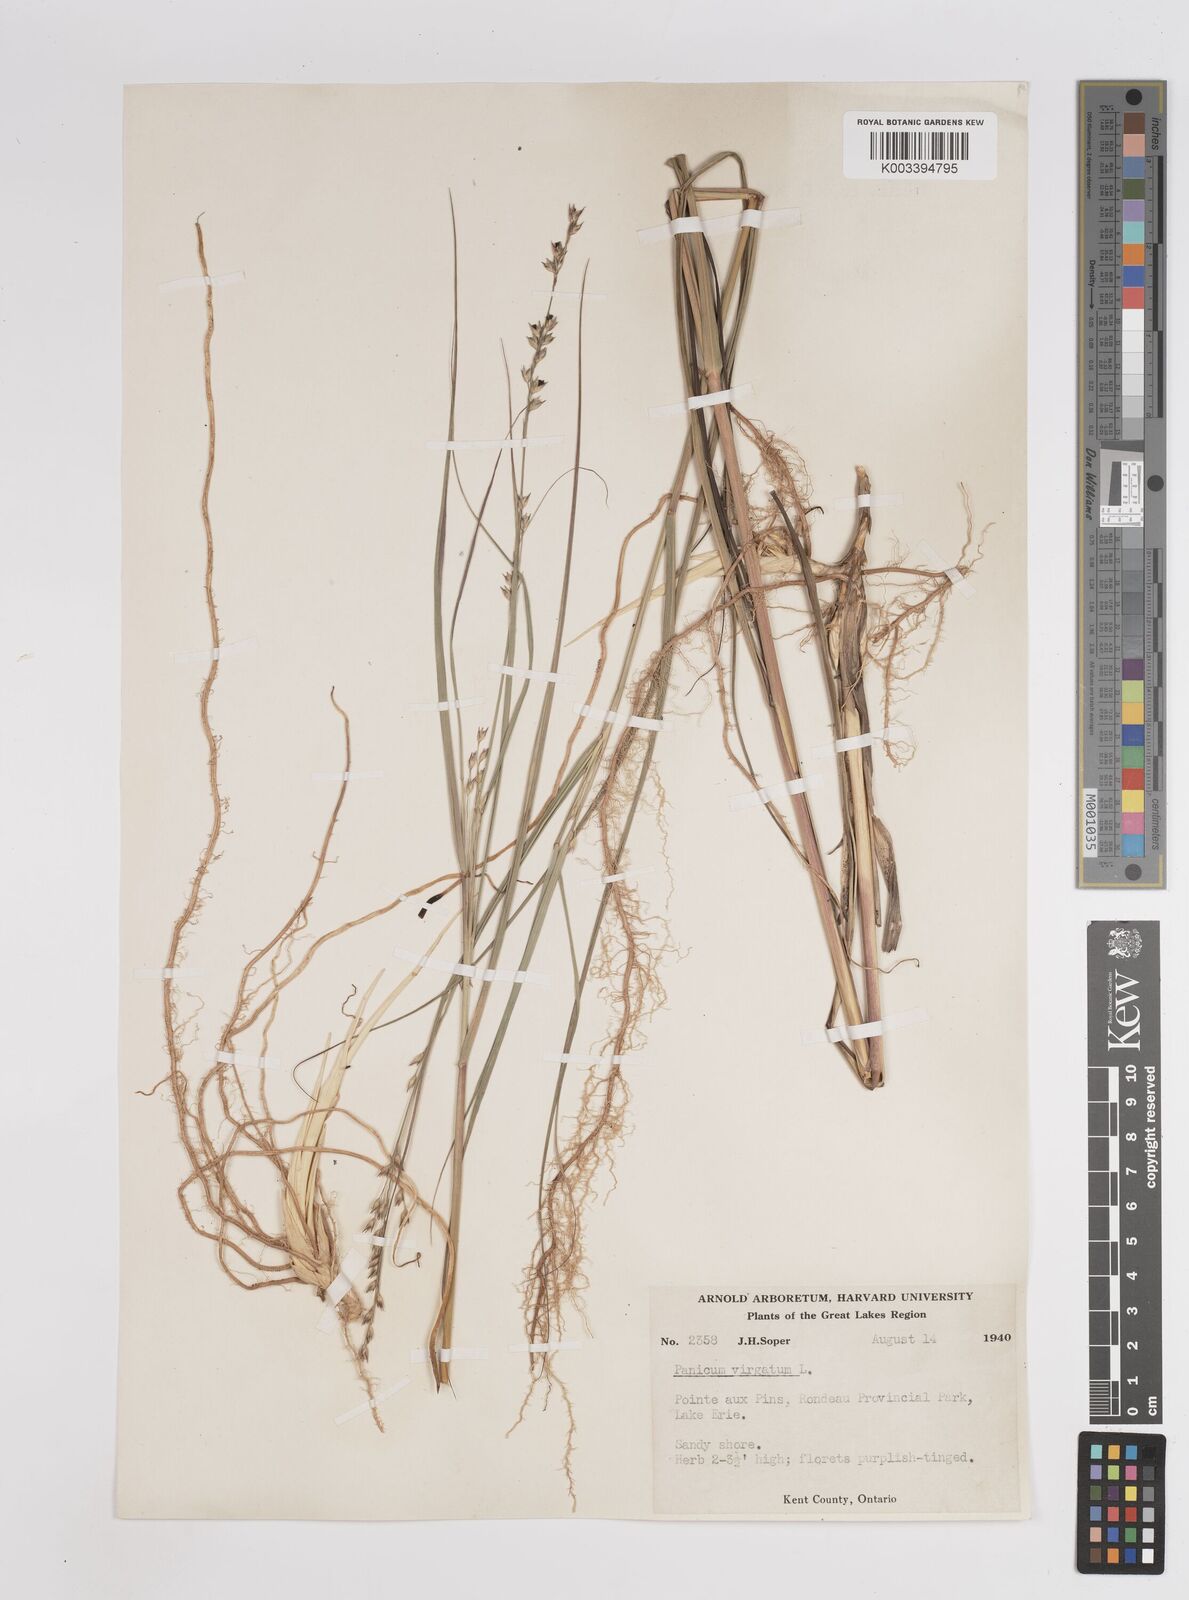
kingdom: Plantae
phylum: Tracheophyta
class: Liliopsida
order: Poales
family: Poaceae
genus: Panicum
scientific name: Panicum virgatum
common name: Switchgrass
